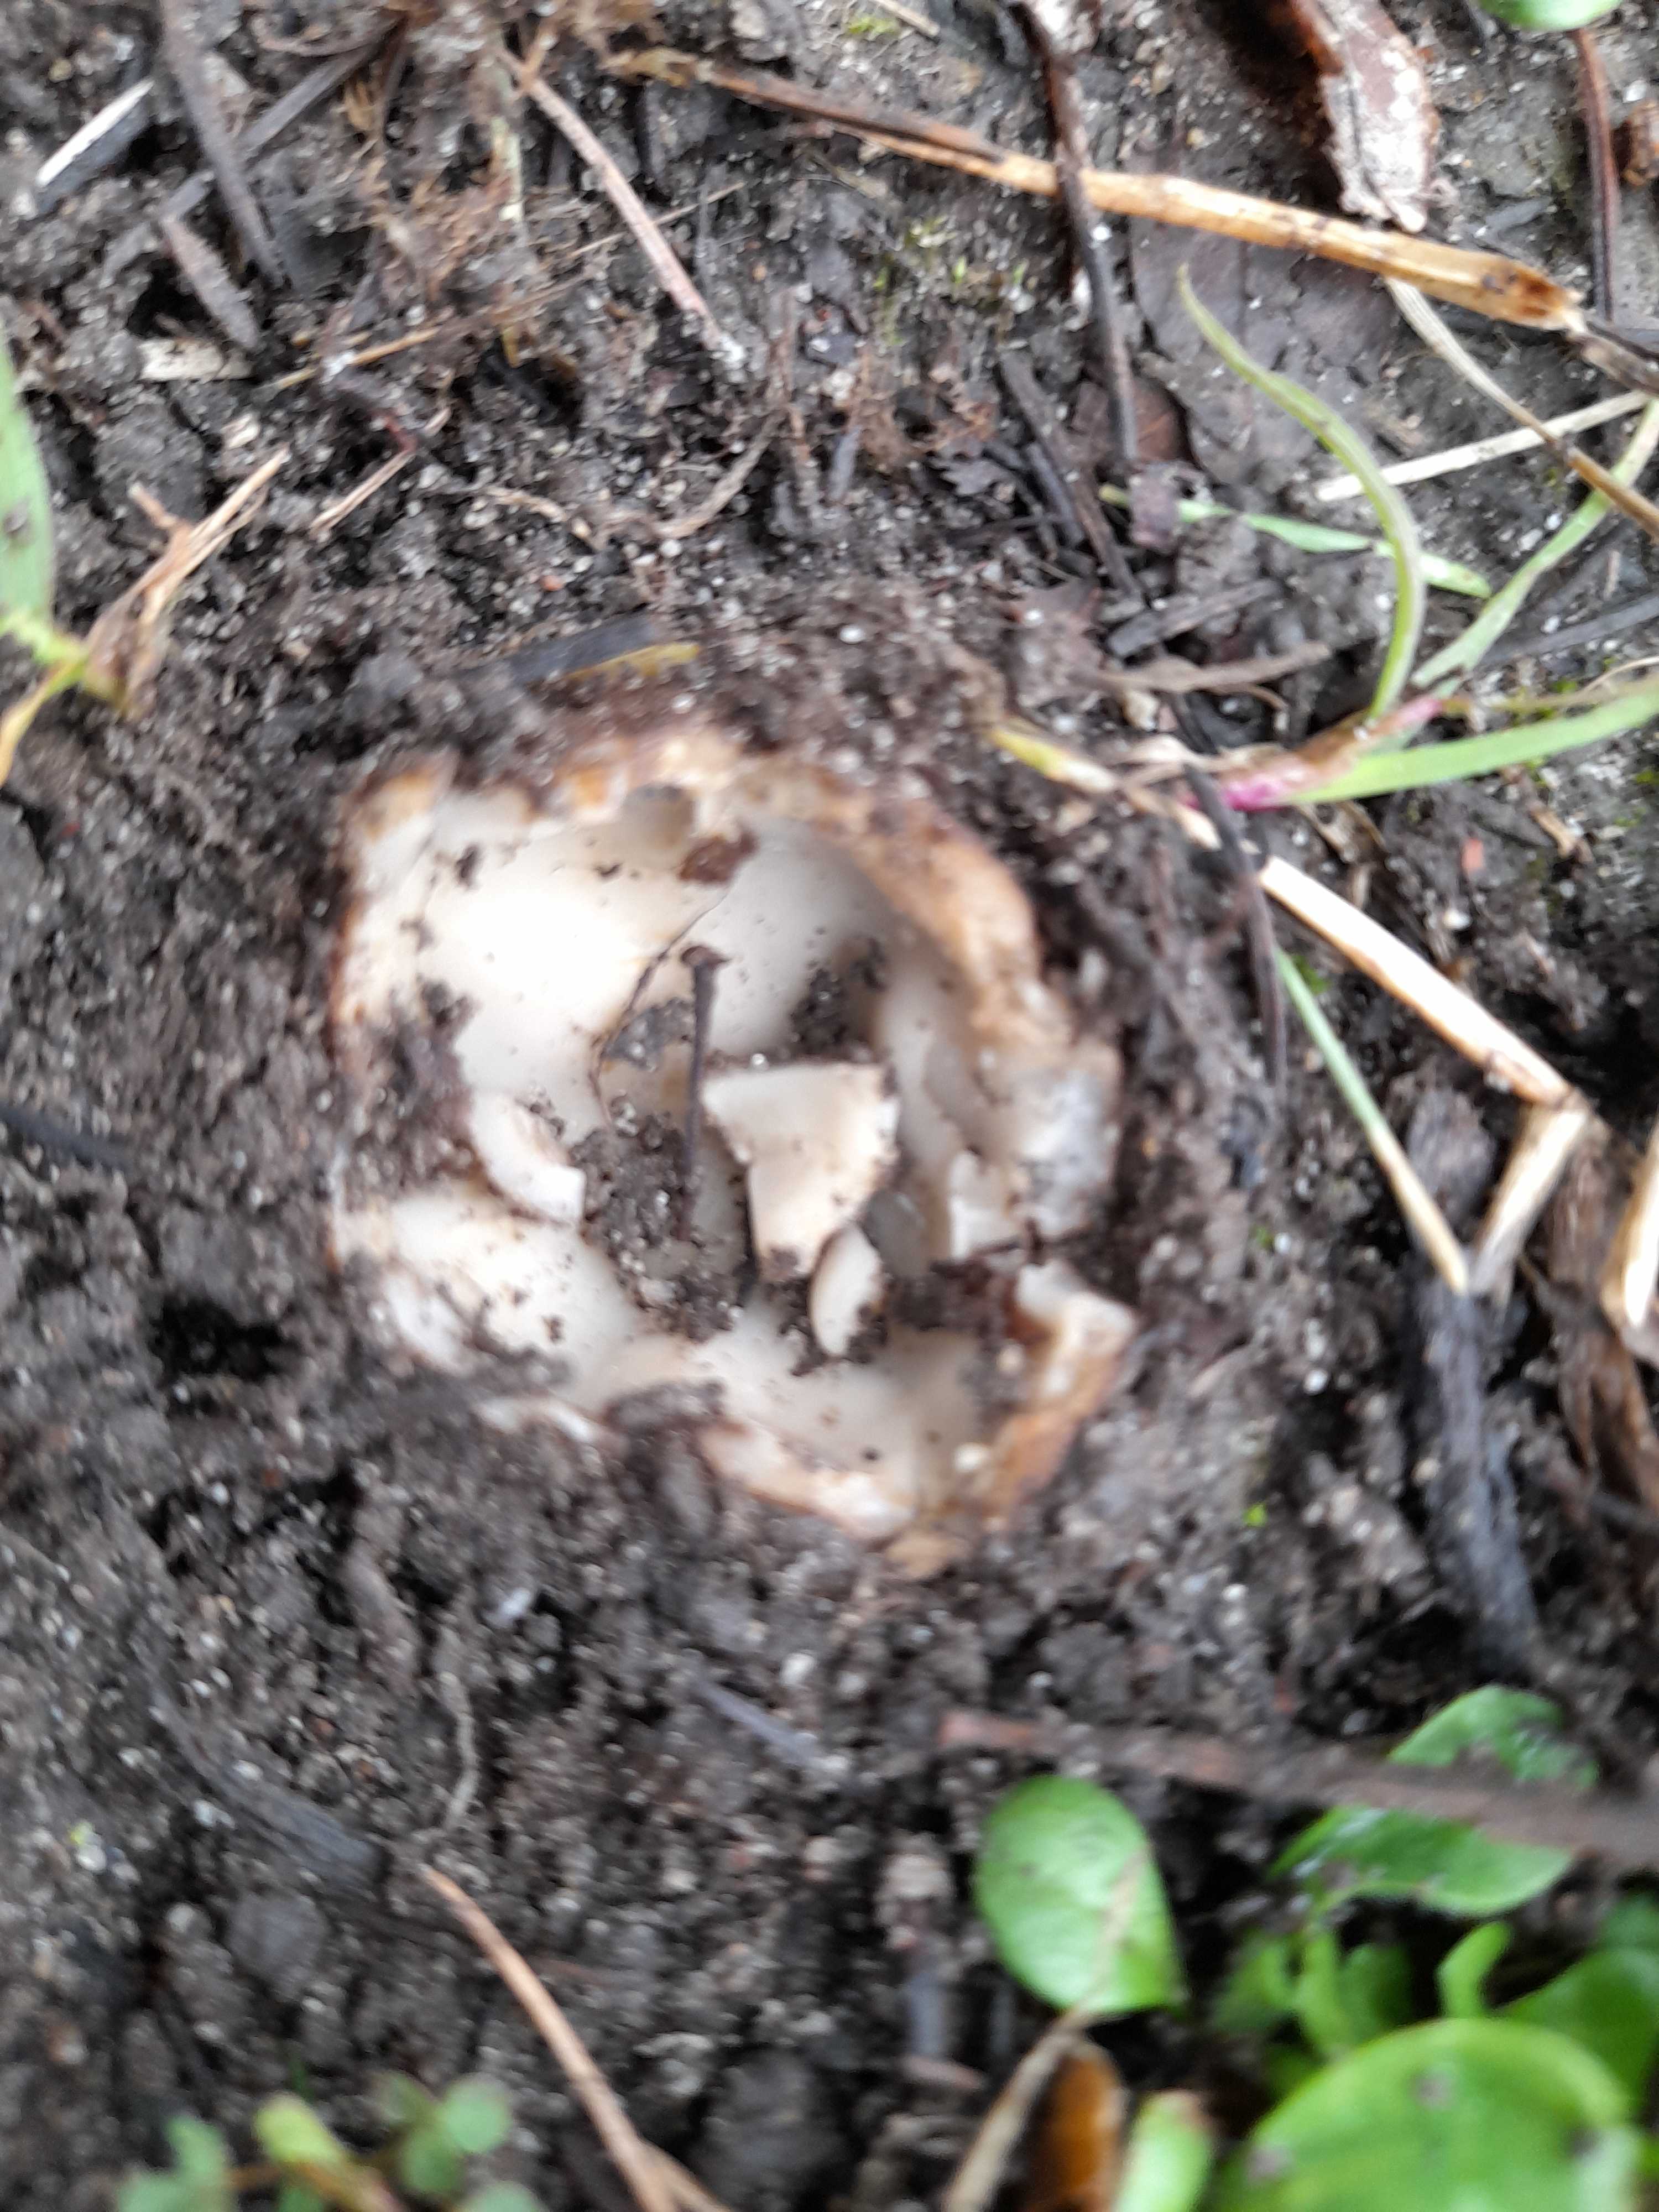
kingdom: Fungi
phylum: Ascomycota
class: Pezizomycetes
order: Pezizales
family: Pyronemataceae
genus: Geopora
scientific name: Geopora sumneriana
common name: vår-jordbæger
